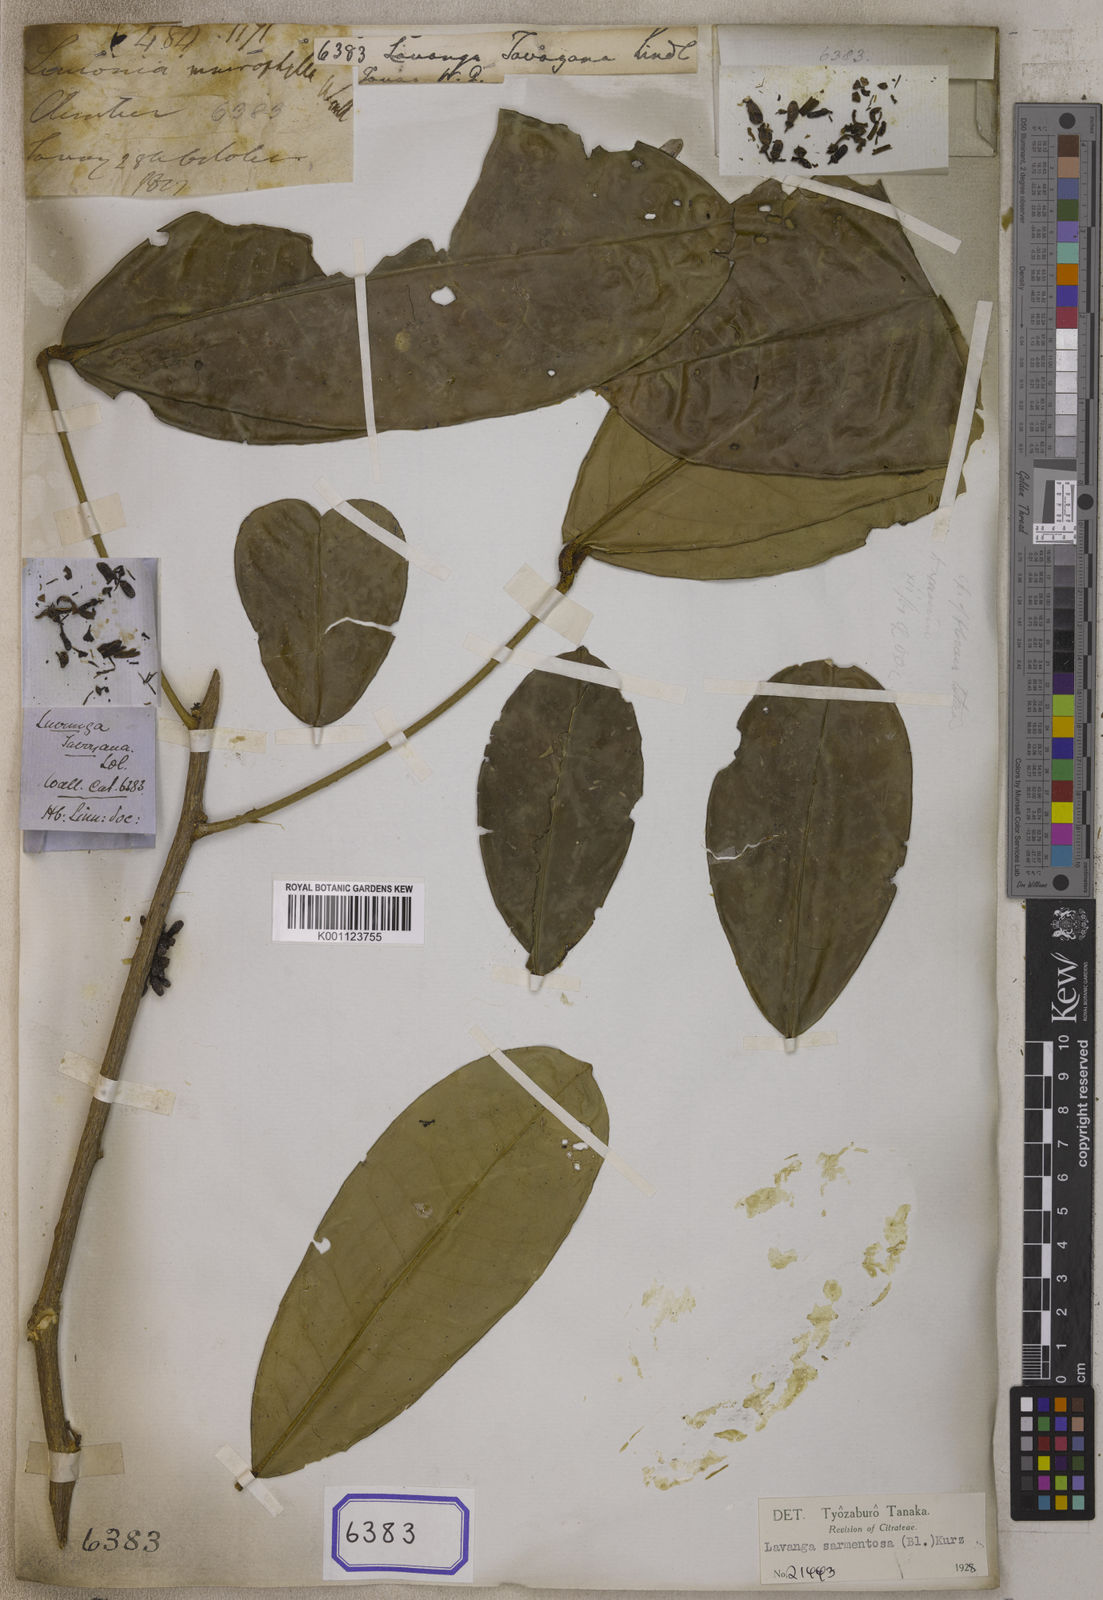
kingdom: Plantae
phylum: Tracheophyta
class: Magnoliopsida
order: Sapindales
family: Rutaceae
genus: Luvunga
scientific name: Luvunga sarmentosa
